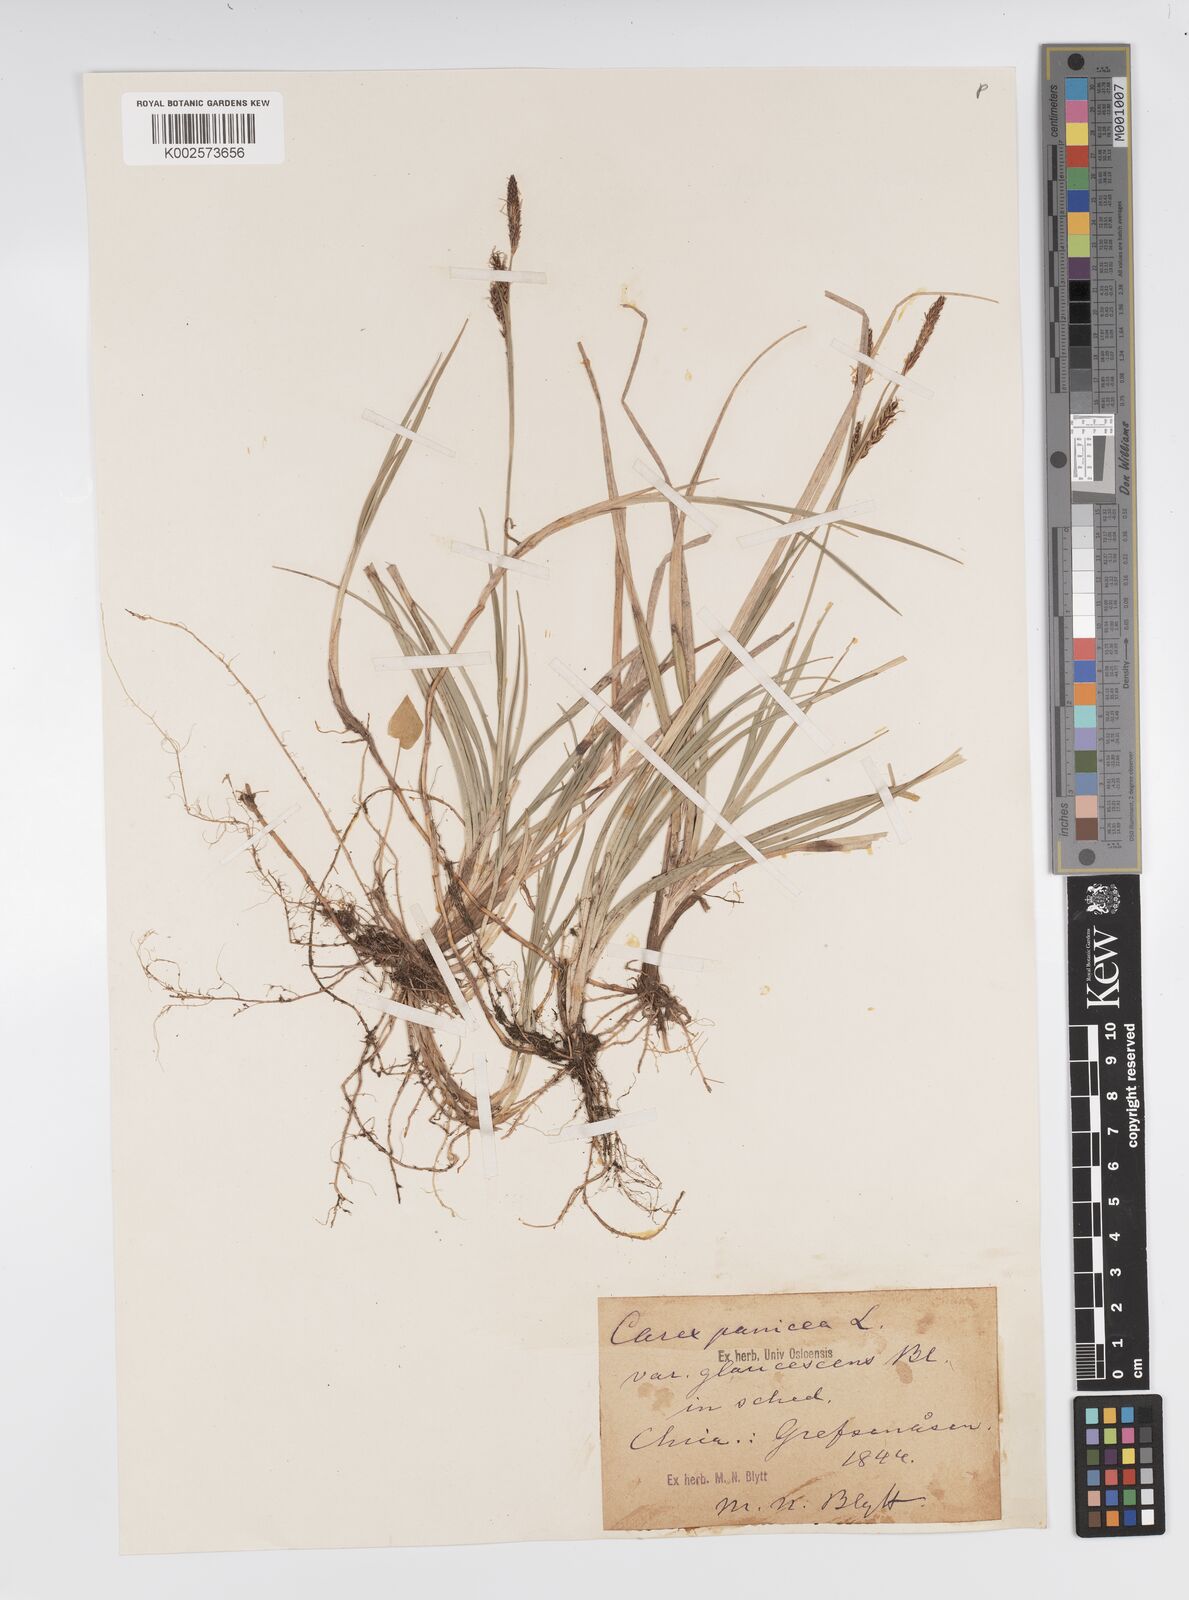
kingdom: Plantae
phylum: Tracheophyta
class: Liliopsida
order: Poales
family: Cyperaceae
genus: Carex
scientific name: Carex panicea
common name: Carnation sedge
